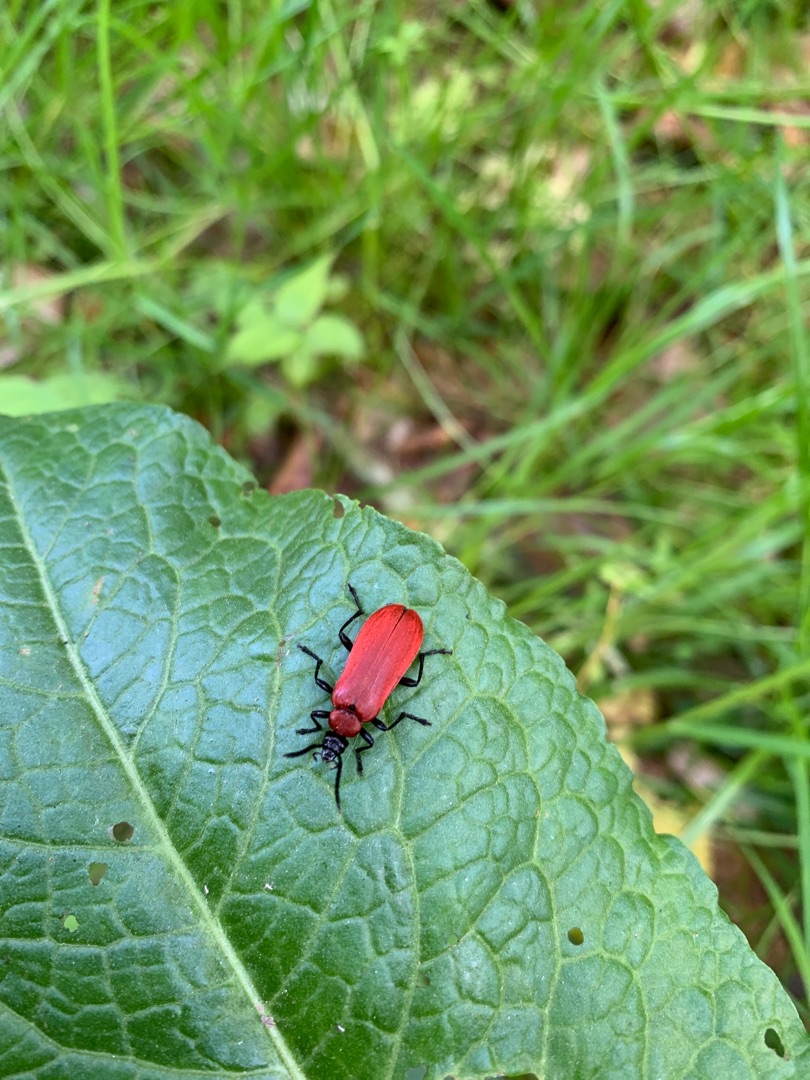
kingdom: Animalia
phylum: Arthropoda
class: Insecta
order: Coleoptera
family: Pyrochroidae
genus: Pyrochroa
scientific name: Pyrochroa coccinea
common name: Sorthovedet kardinalbille
